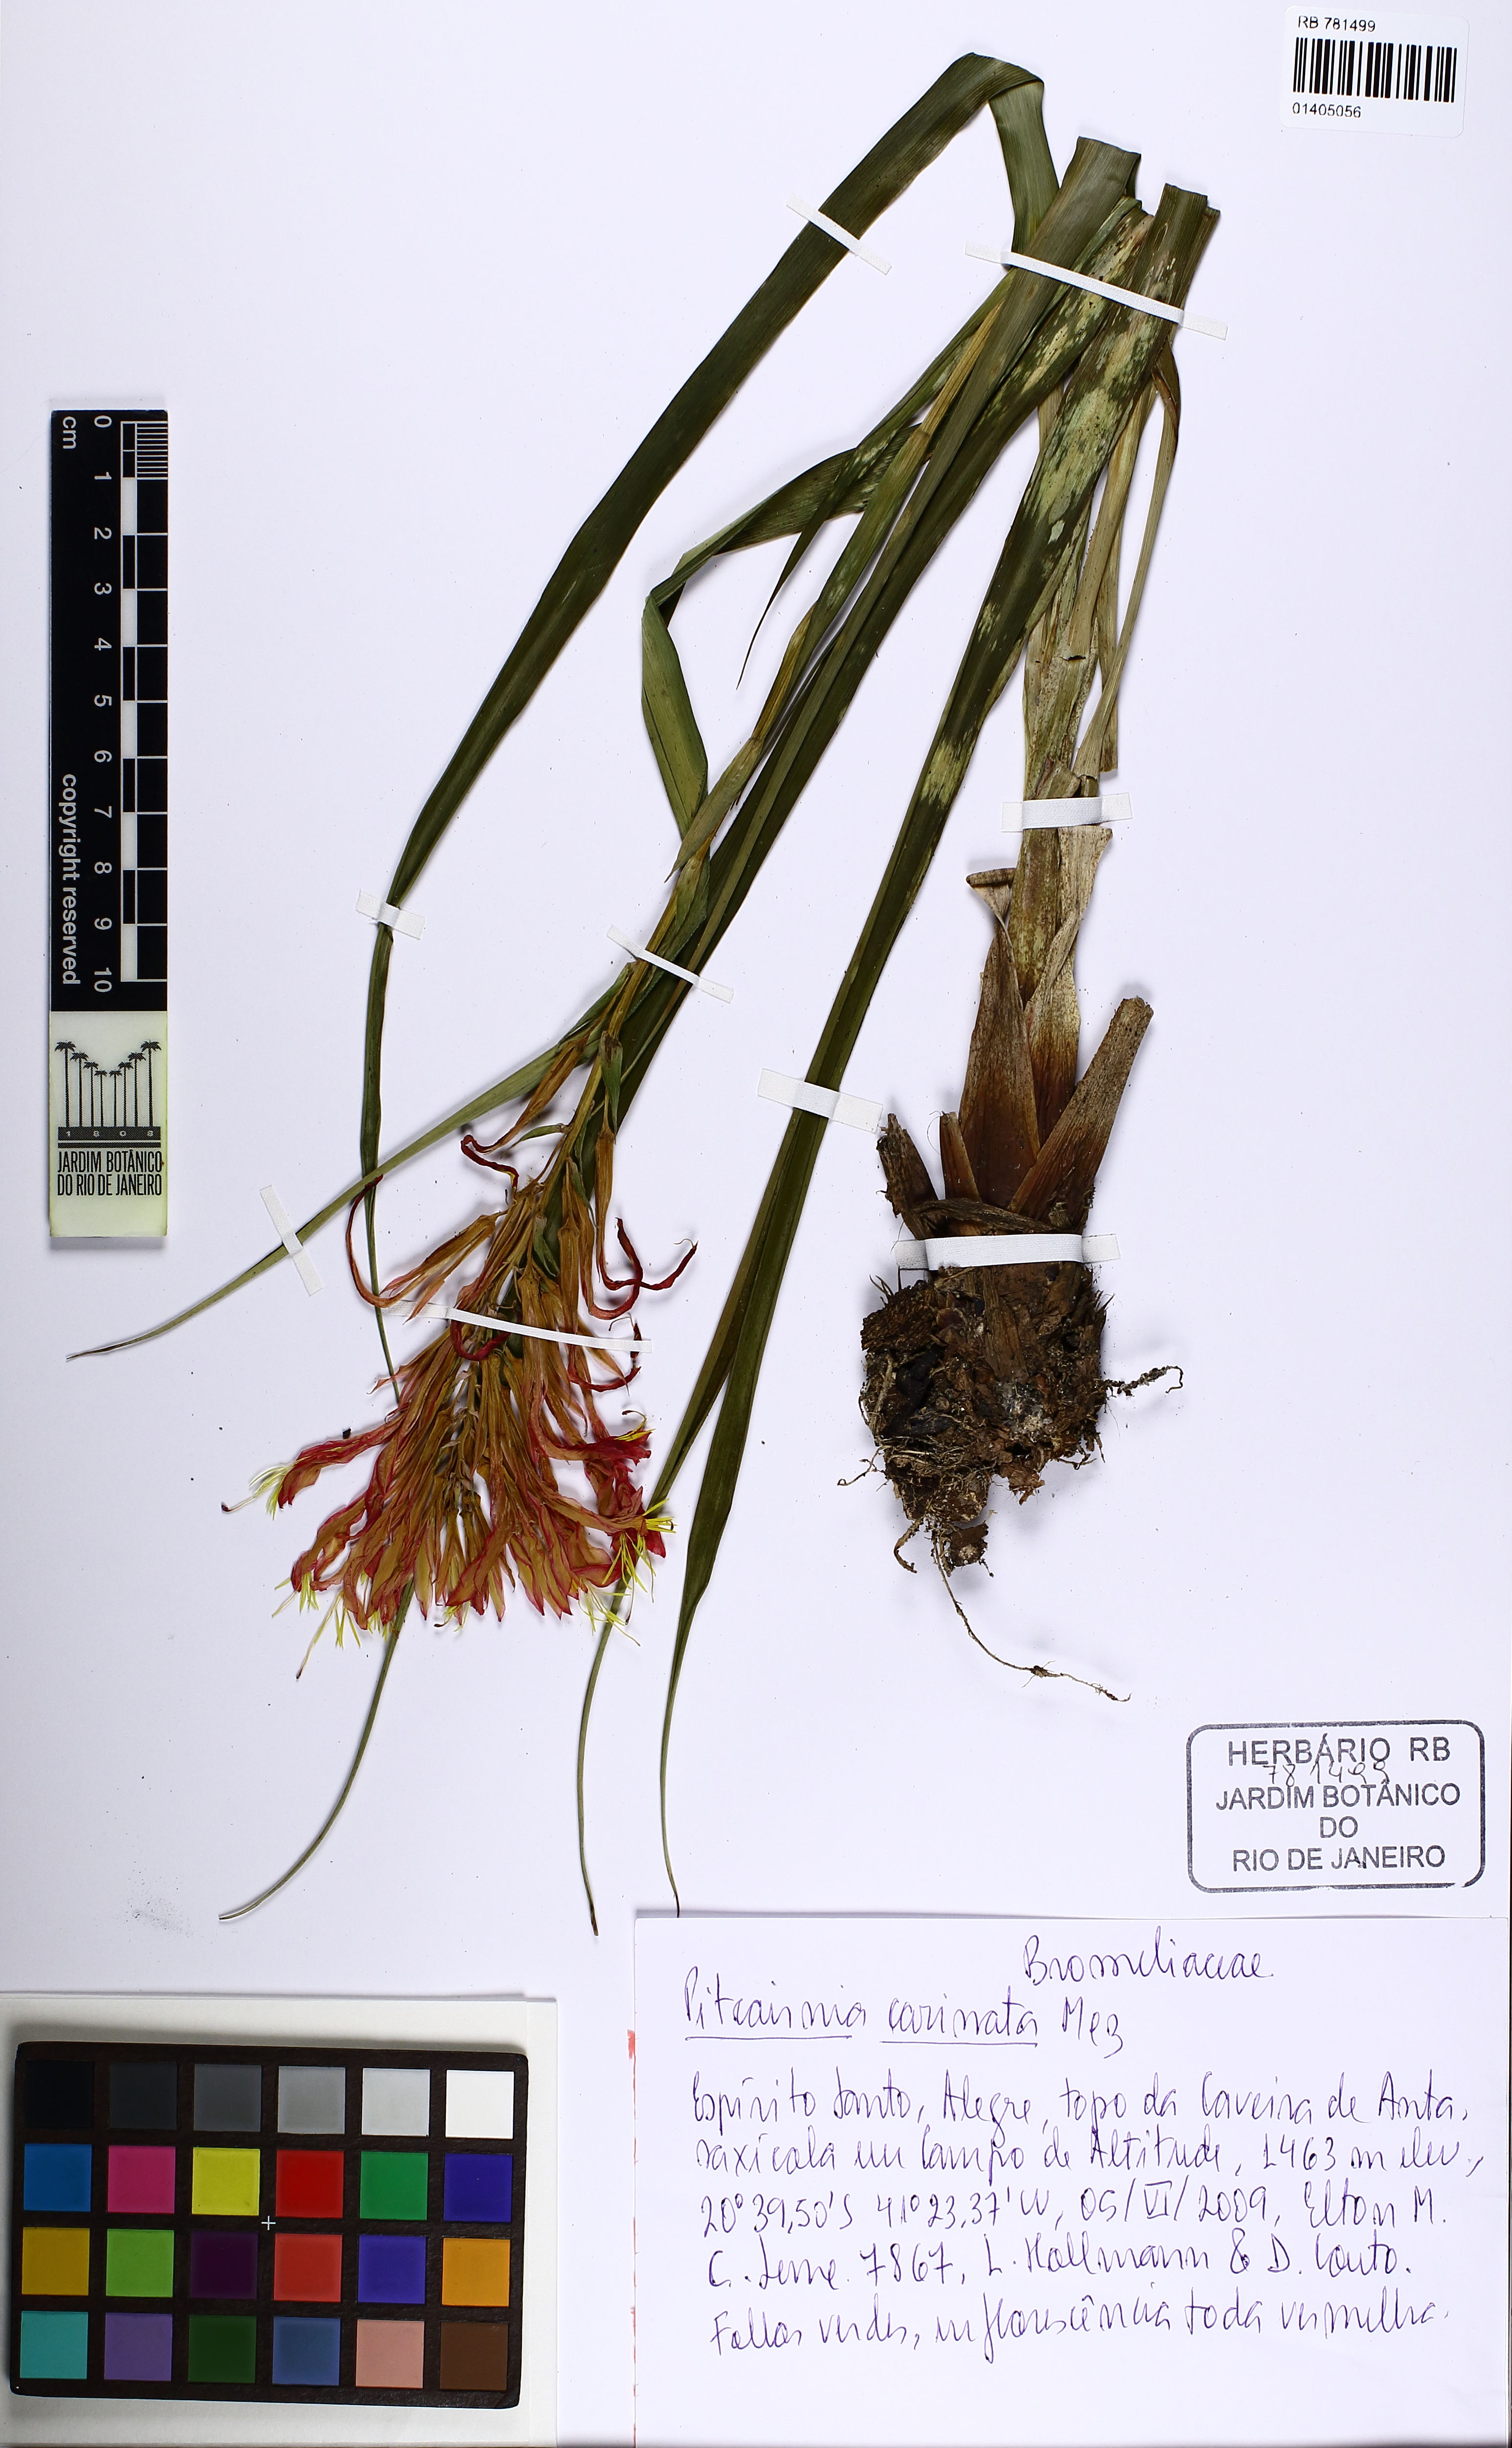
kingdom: Plantae
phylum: Tracheophyta
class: Liliopsida
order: Poales
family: Bromeliaceae
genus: Pitcairnia
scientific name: Pitcairnia carinata
